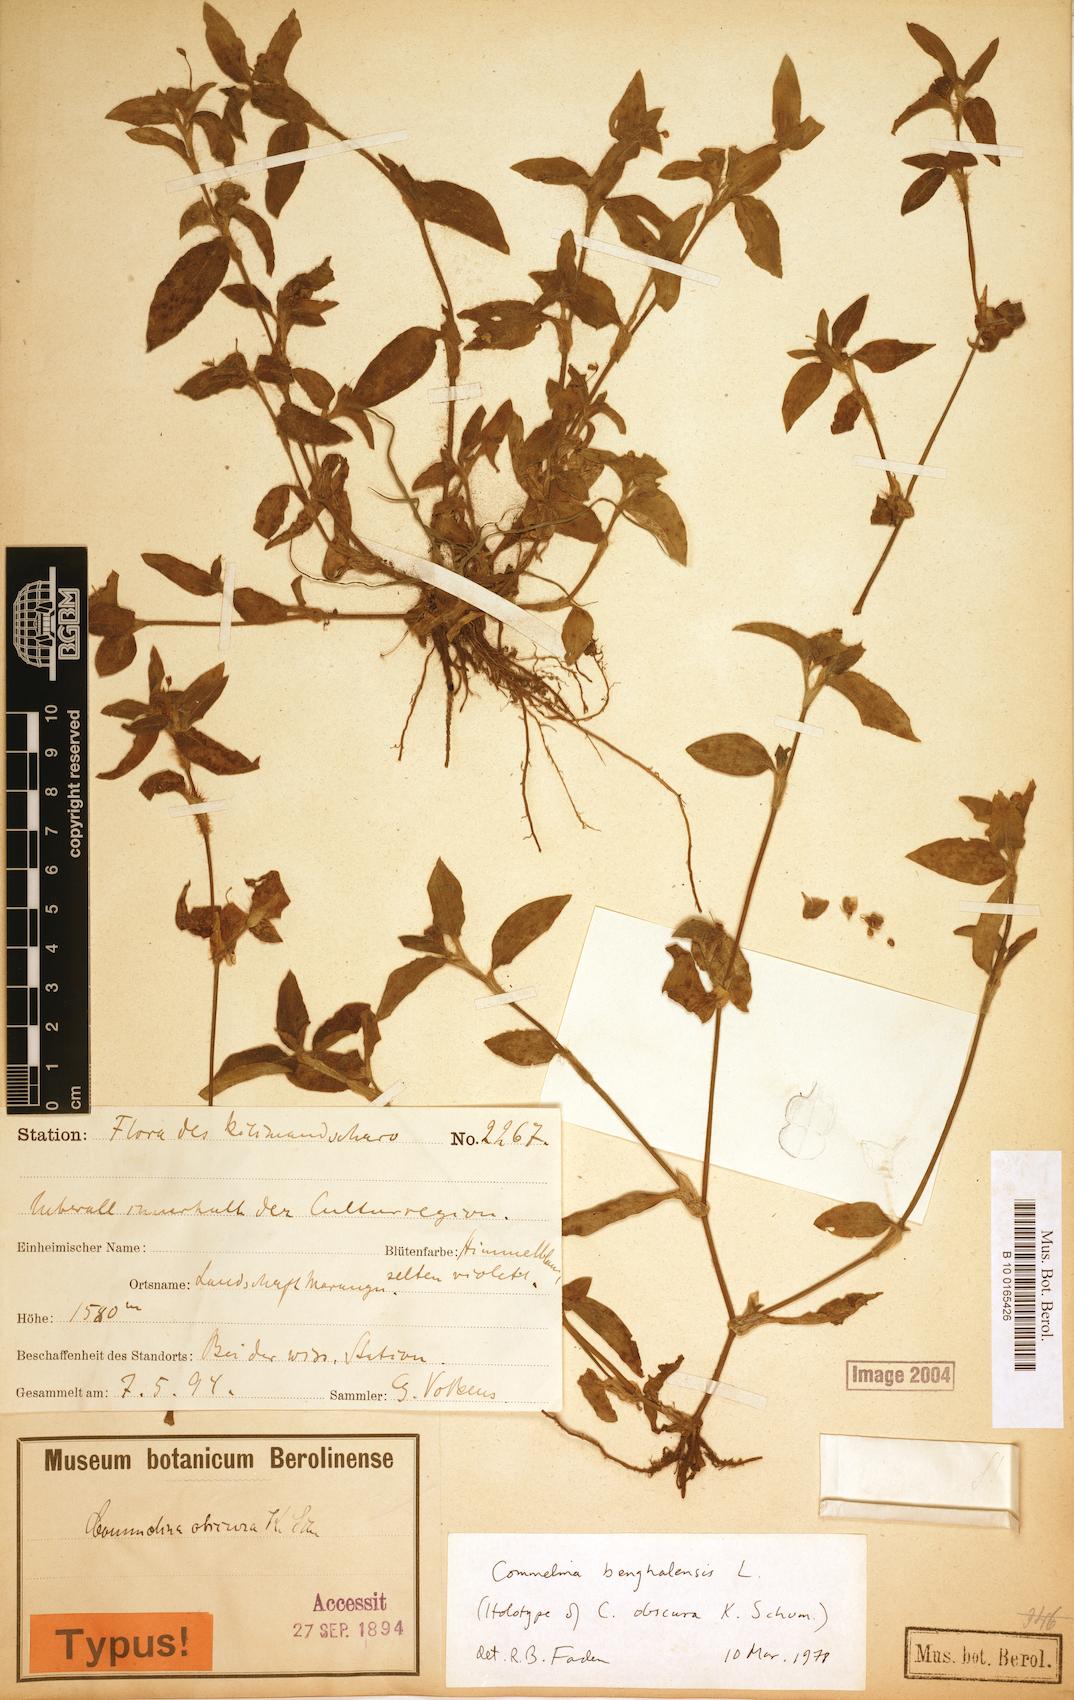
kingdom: Plantae
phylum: Tracheophyta
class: Liliopsida
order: Commelinales
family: Commelinaceae
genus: Commelina
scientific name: Commelina benghalensis
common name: Jio
